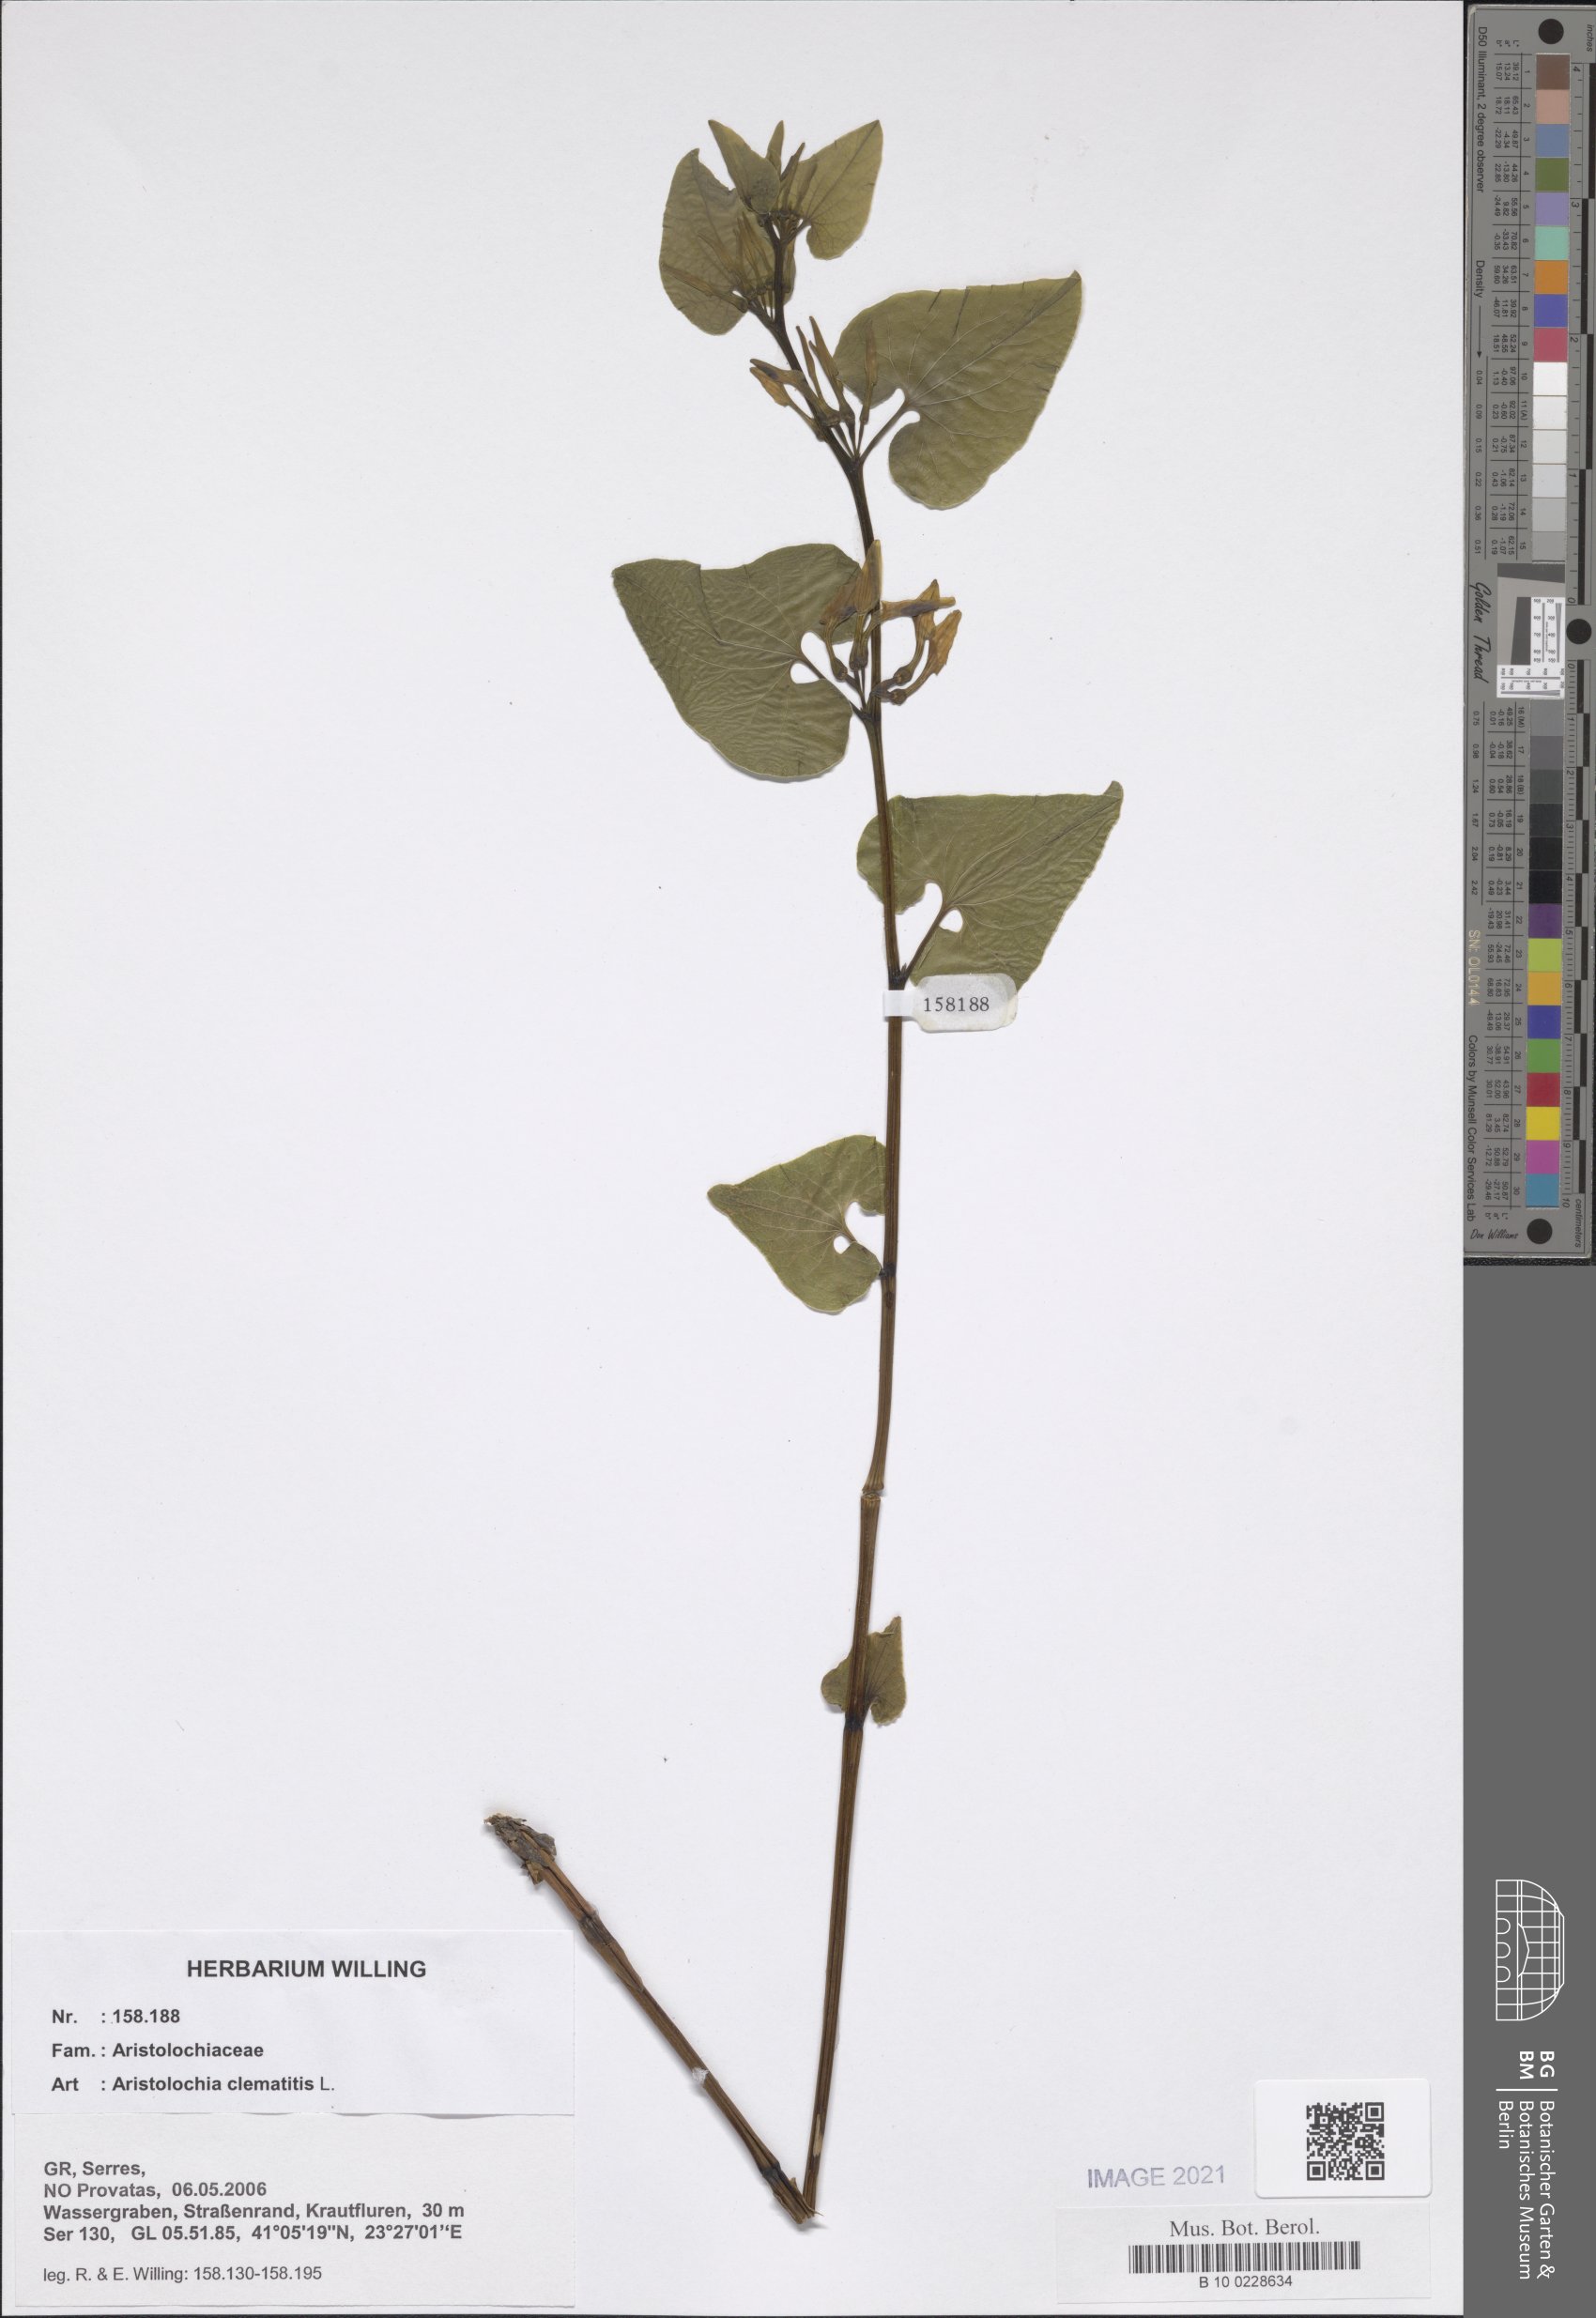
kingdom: Plantae
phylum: Tracheophyta
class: Magnoliopsida
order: Piperales
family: Aristolochiaceae
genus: Aristolochia
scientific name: Aristolochia clematitis
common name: Birthwort
